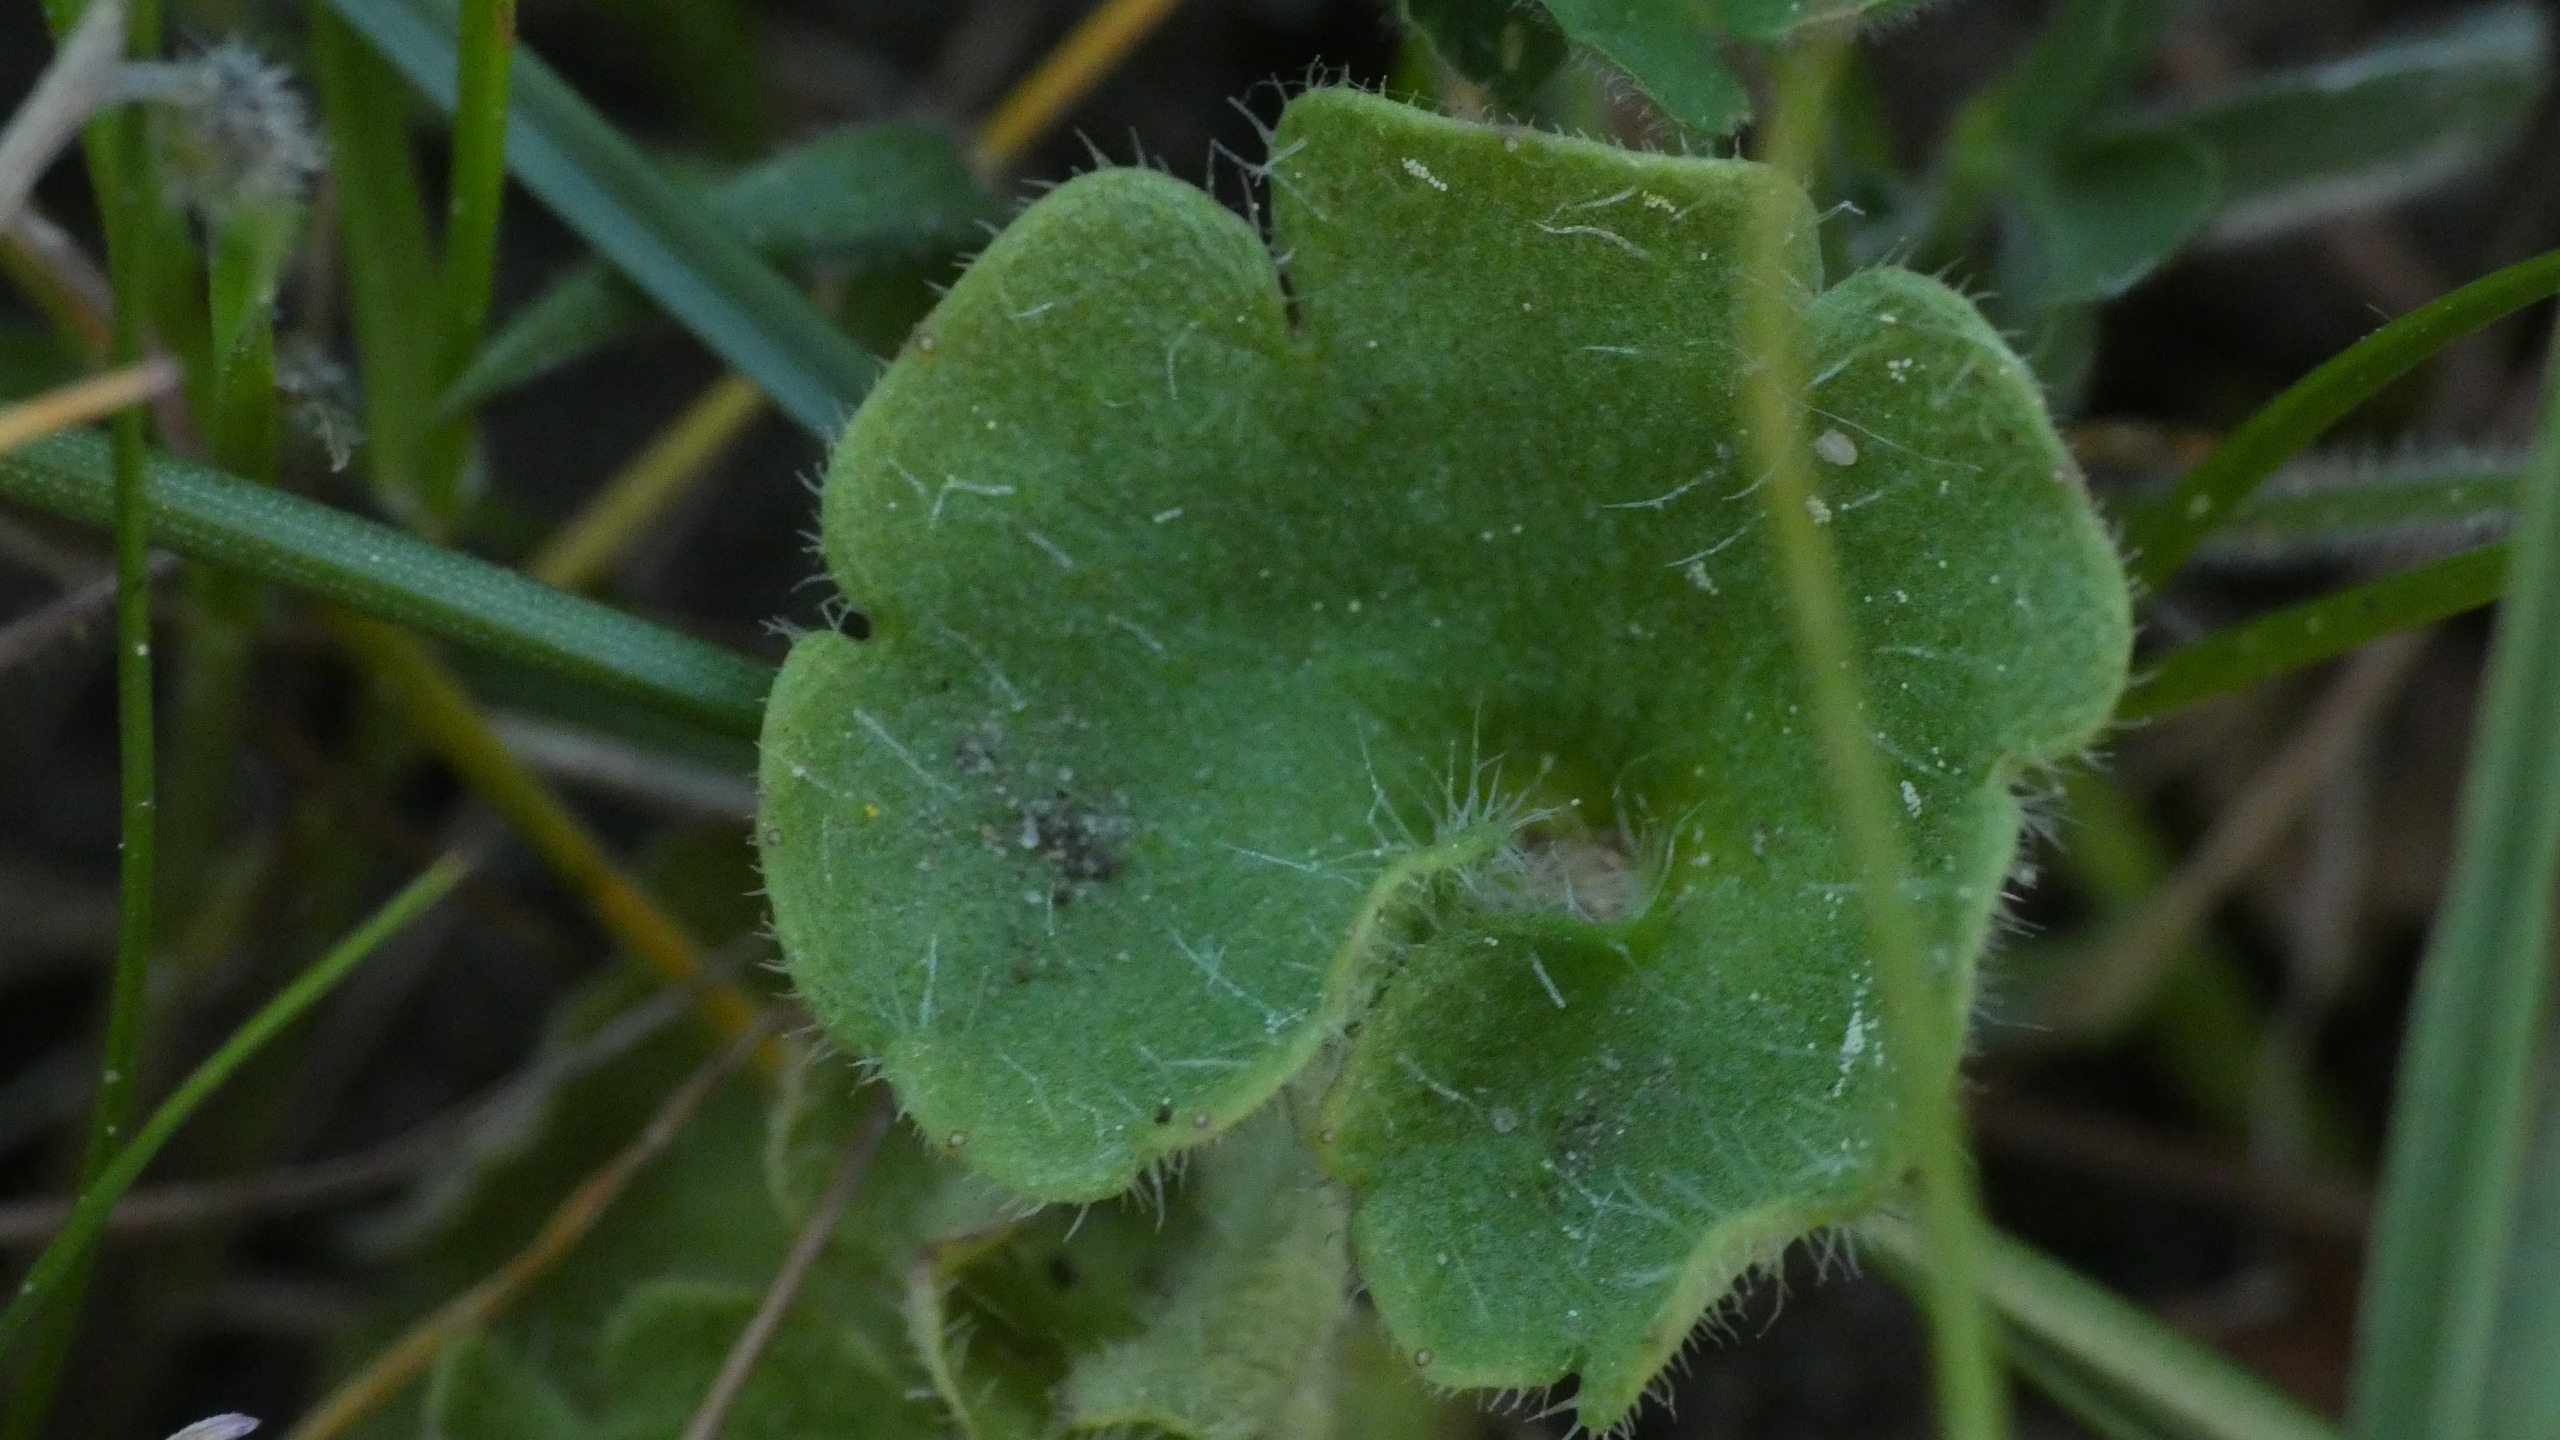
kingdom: Plantae
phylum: Tracheophyta
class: Magnoliopsida
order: Saxifragales
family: Saxifragaceae
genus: Saxifraga
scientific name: Saxifraga granulata
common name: Kornet stenbræk
